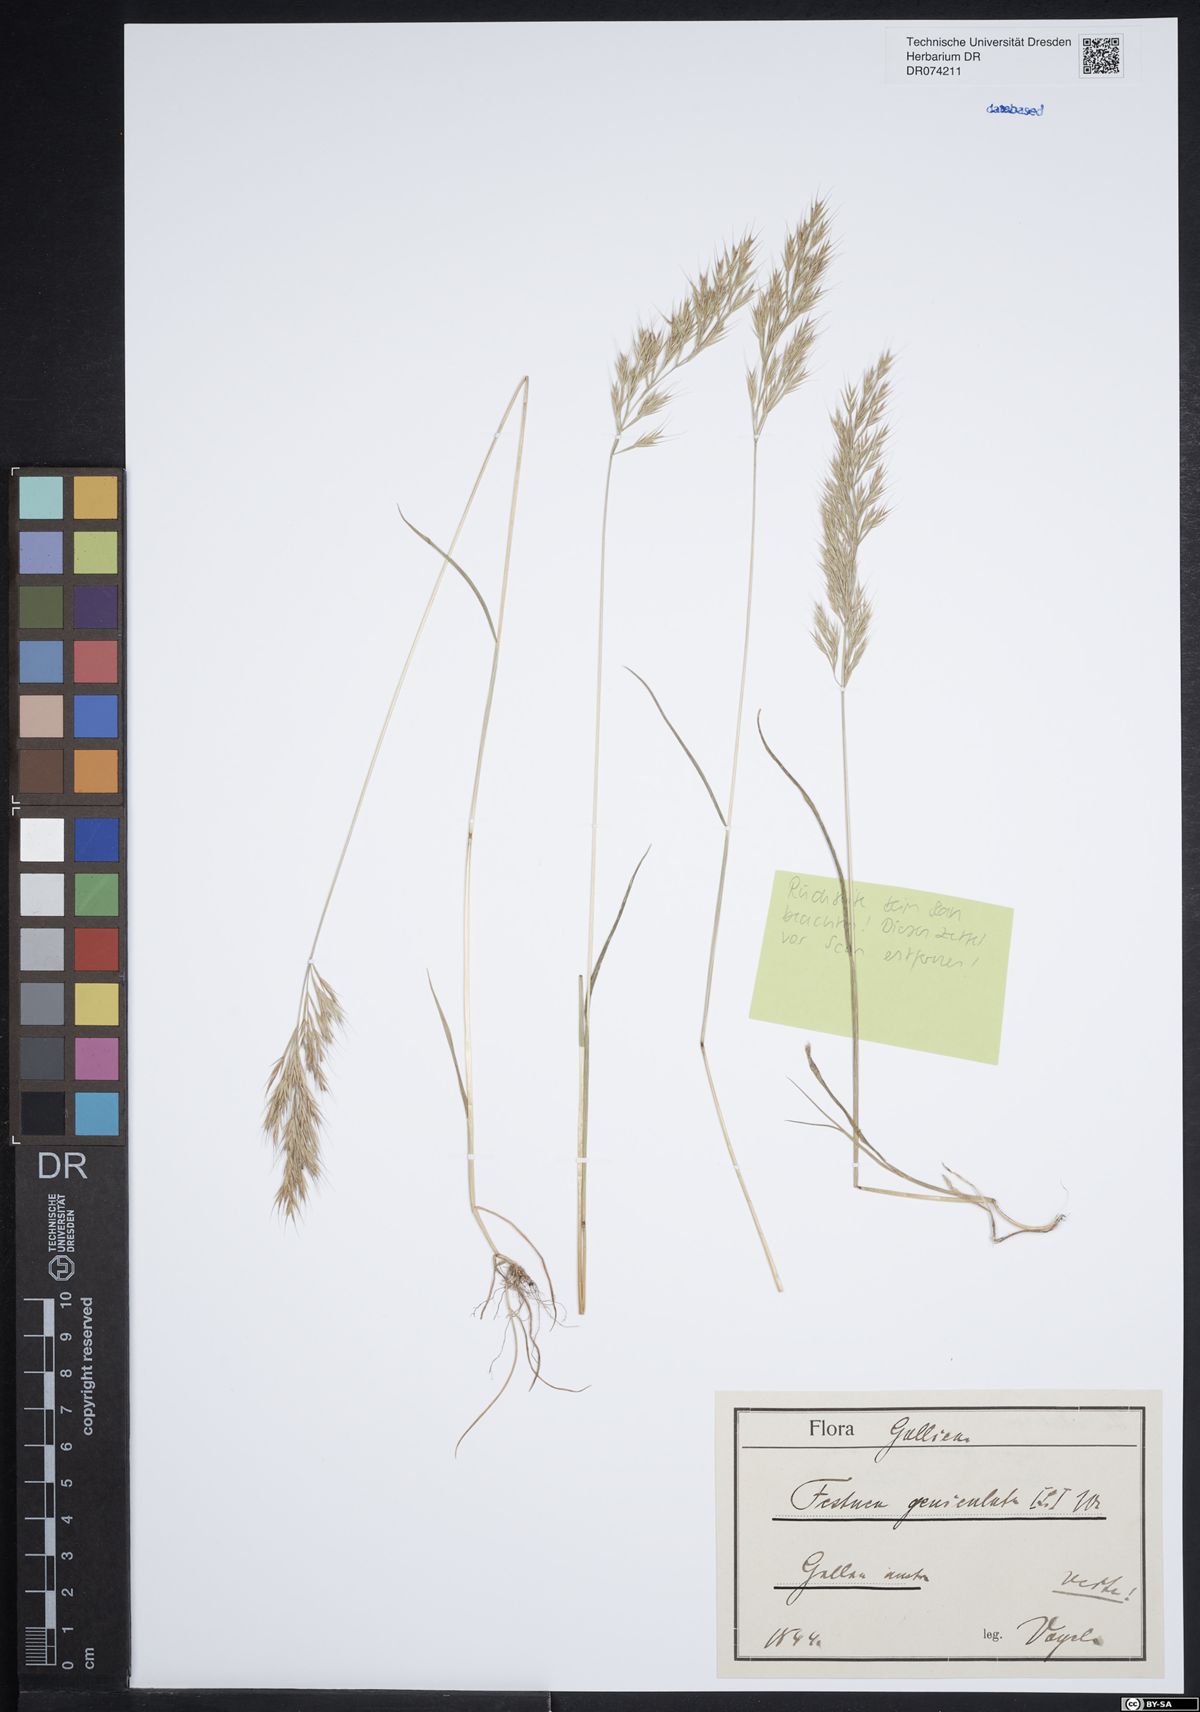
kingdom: Plantae
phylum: Tracheophyta
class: Liliopsida
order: Poales
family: Poaceae
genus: Festuca
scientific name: Festuca geniculata
